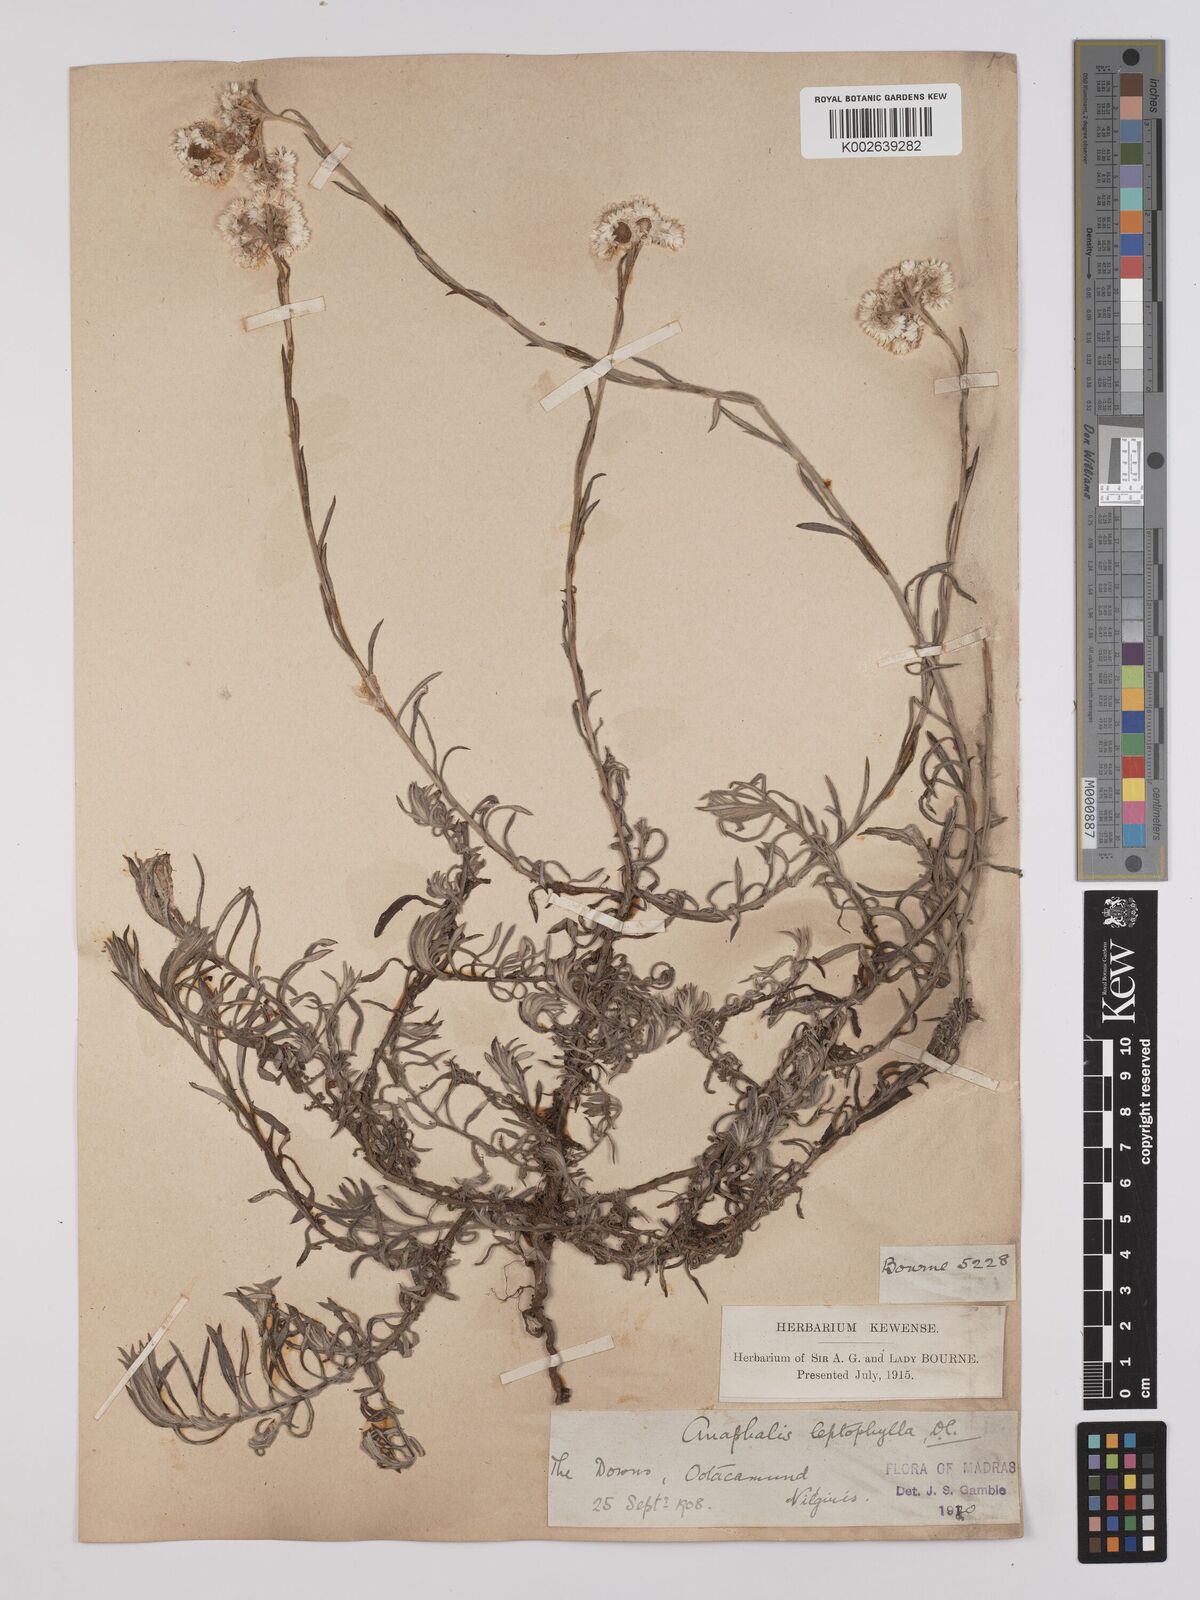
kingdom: Plantae
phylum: Tracheophyta
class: Magnoliopsida
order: Asterales
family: Asteraceae
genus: Anaphalis
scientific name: Anaphalis
